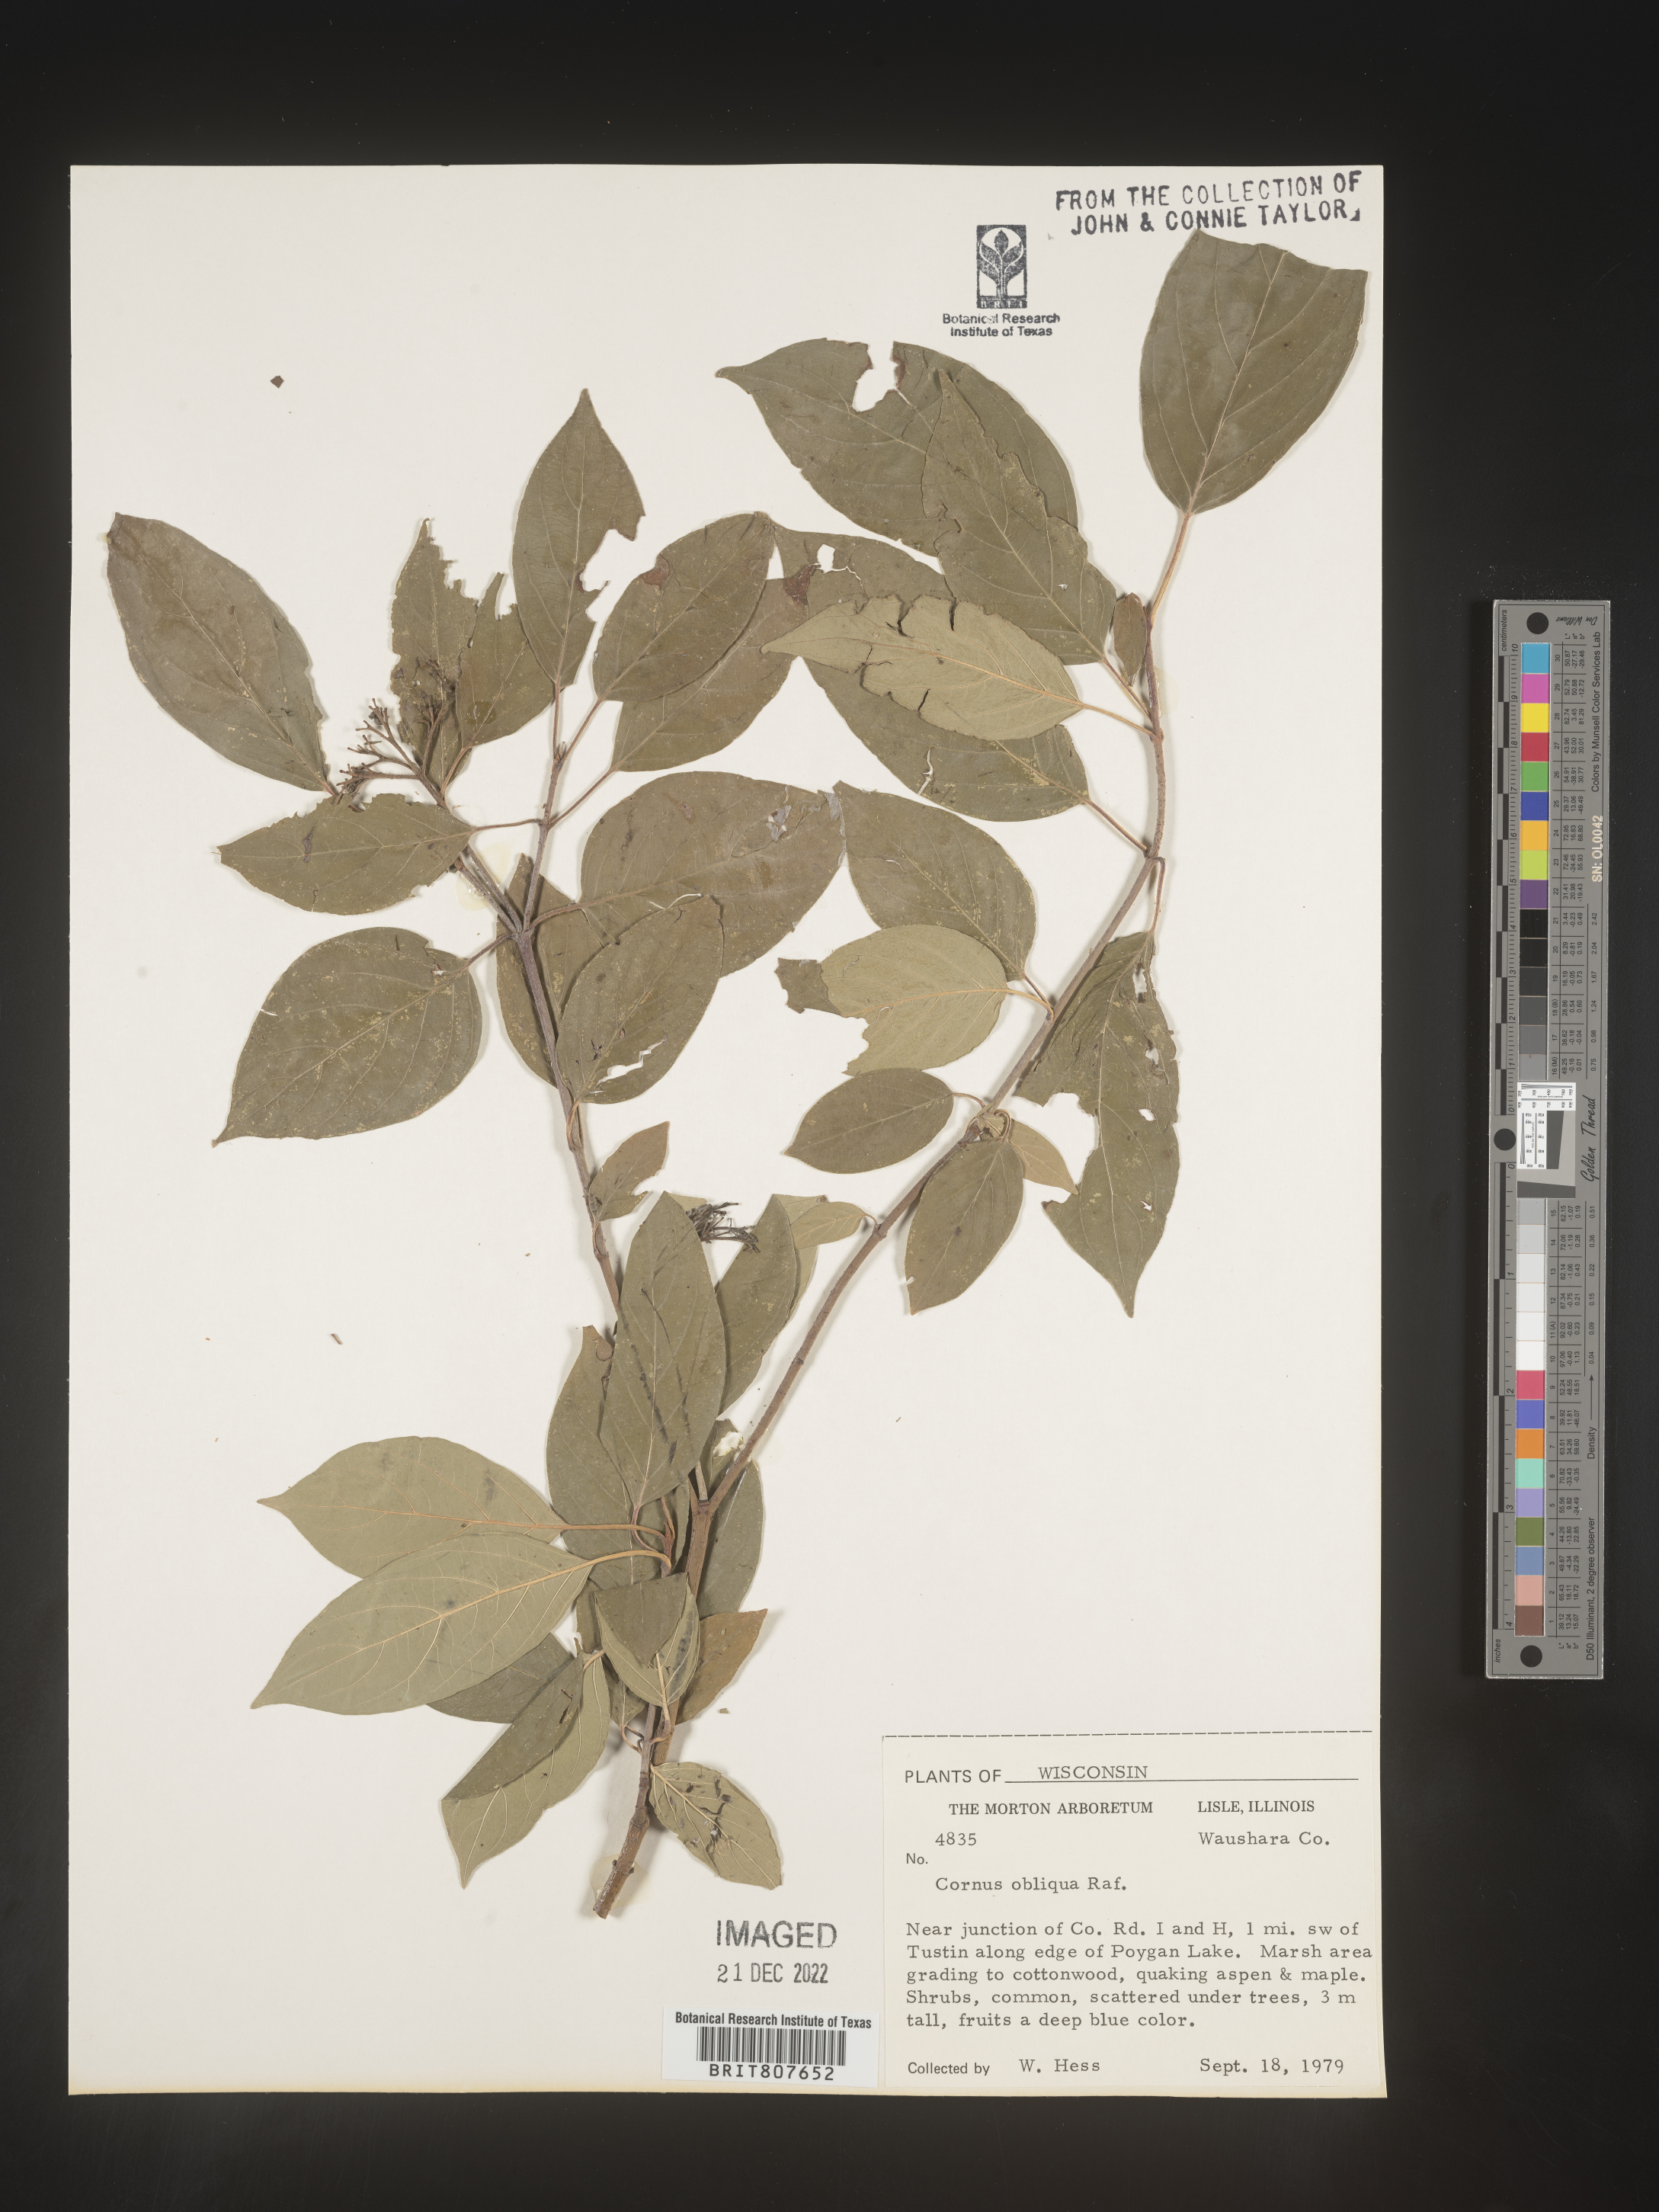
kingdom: Plantae
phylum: Tracheophyta
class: Magnoliopsida
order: Cornales
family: Cornaceae
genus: Cornus
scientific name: Cornus obliqua
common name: Pale dogwood
